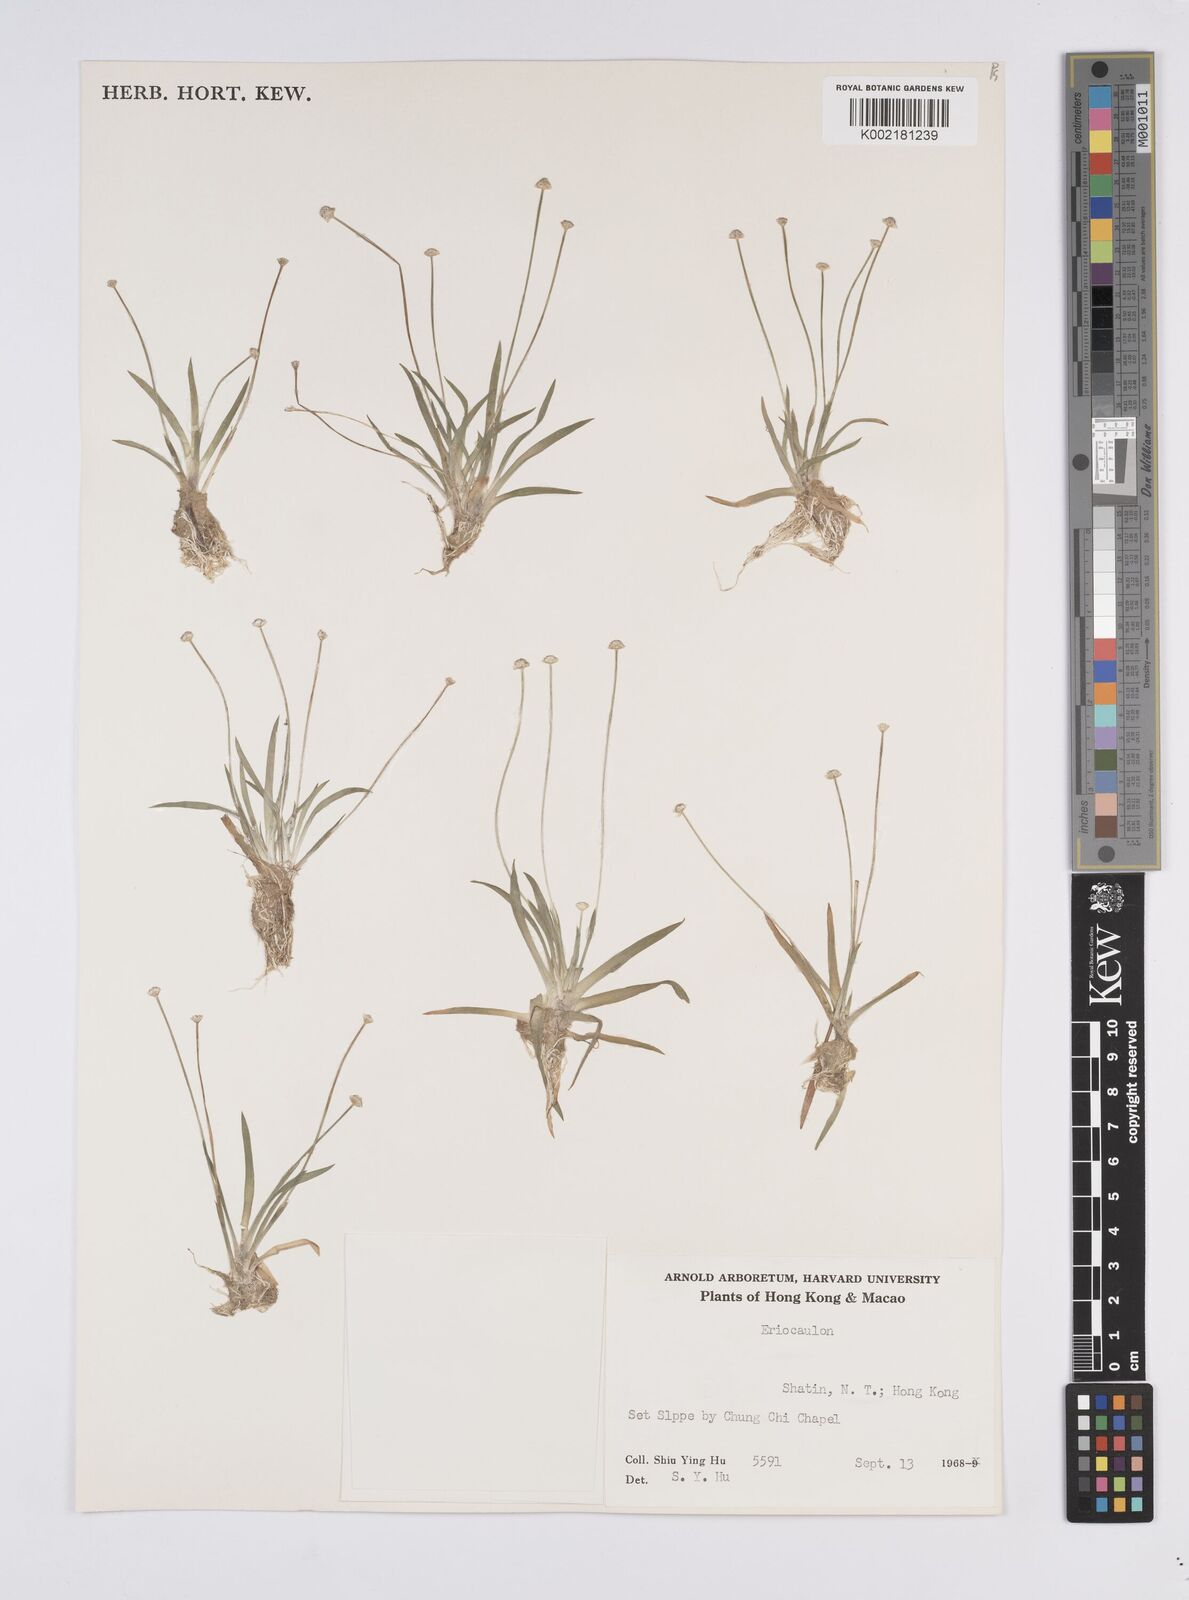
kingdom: Plantae
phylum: Tracheophyta
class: Liliopsida
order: Poales
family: Eriocaulaceae
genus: Eriocaulon
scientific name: Eriocaulon
